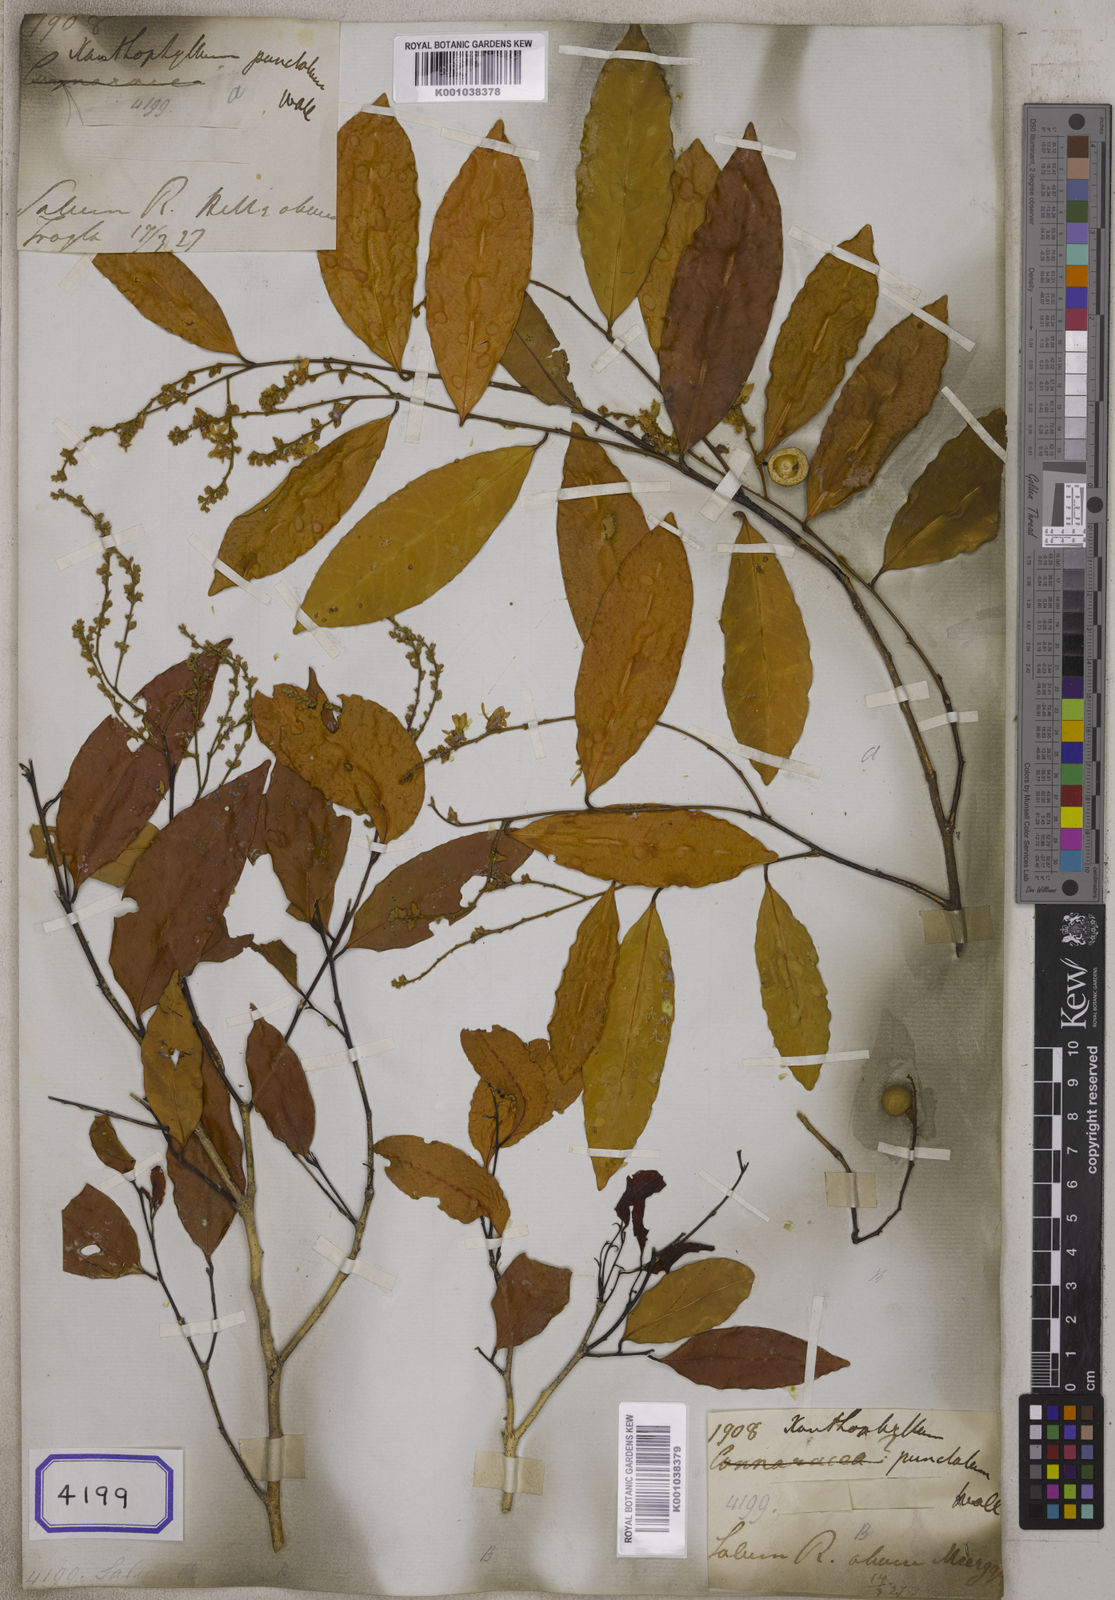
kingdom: Plantae
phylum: Tracheophyta
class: Magnoliopsida
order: Fabales
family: Polygalaceae
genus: Xanthophyllum
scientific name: Xanthophyllum
